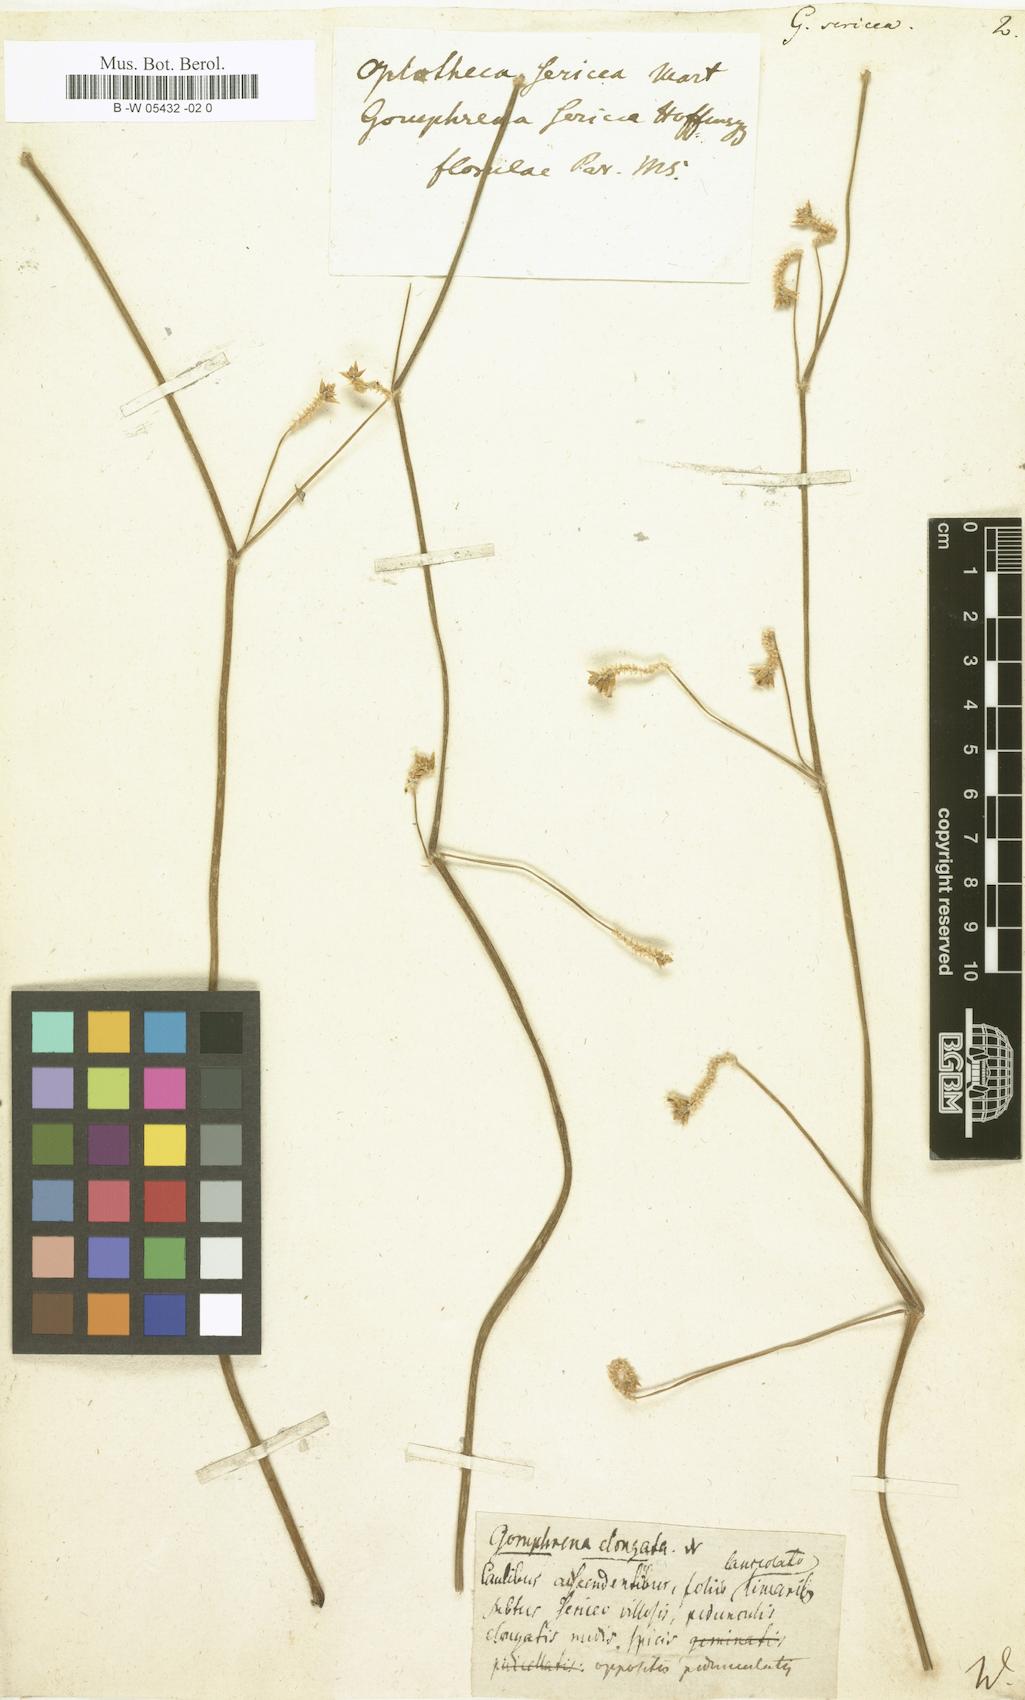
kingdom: Plantae
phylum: Tracheophyta
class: Magnoliopsida
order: Caryophyllales
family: Amaranthaceae
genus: Gomphrena
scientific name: Gomphrena sericea
